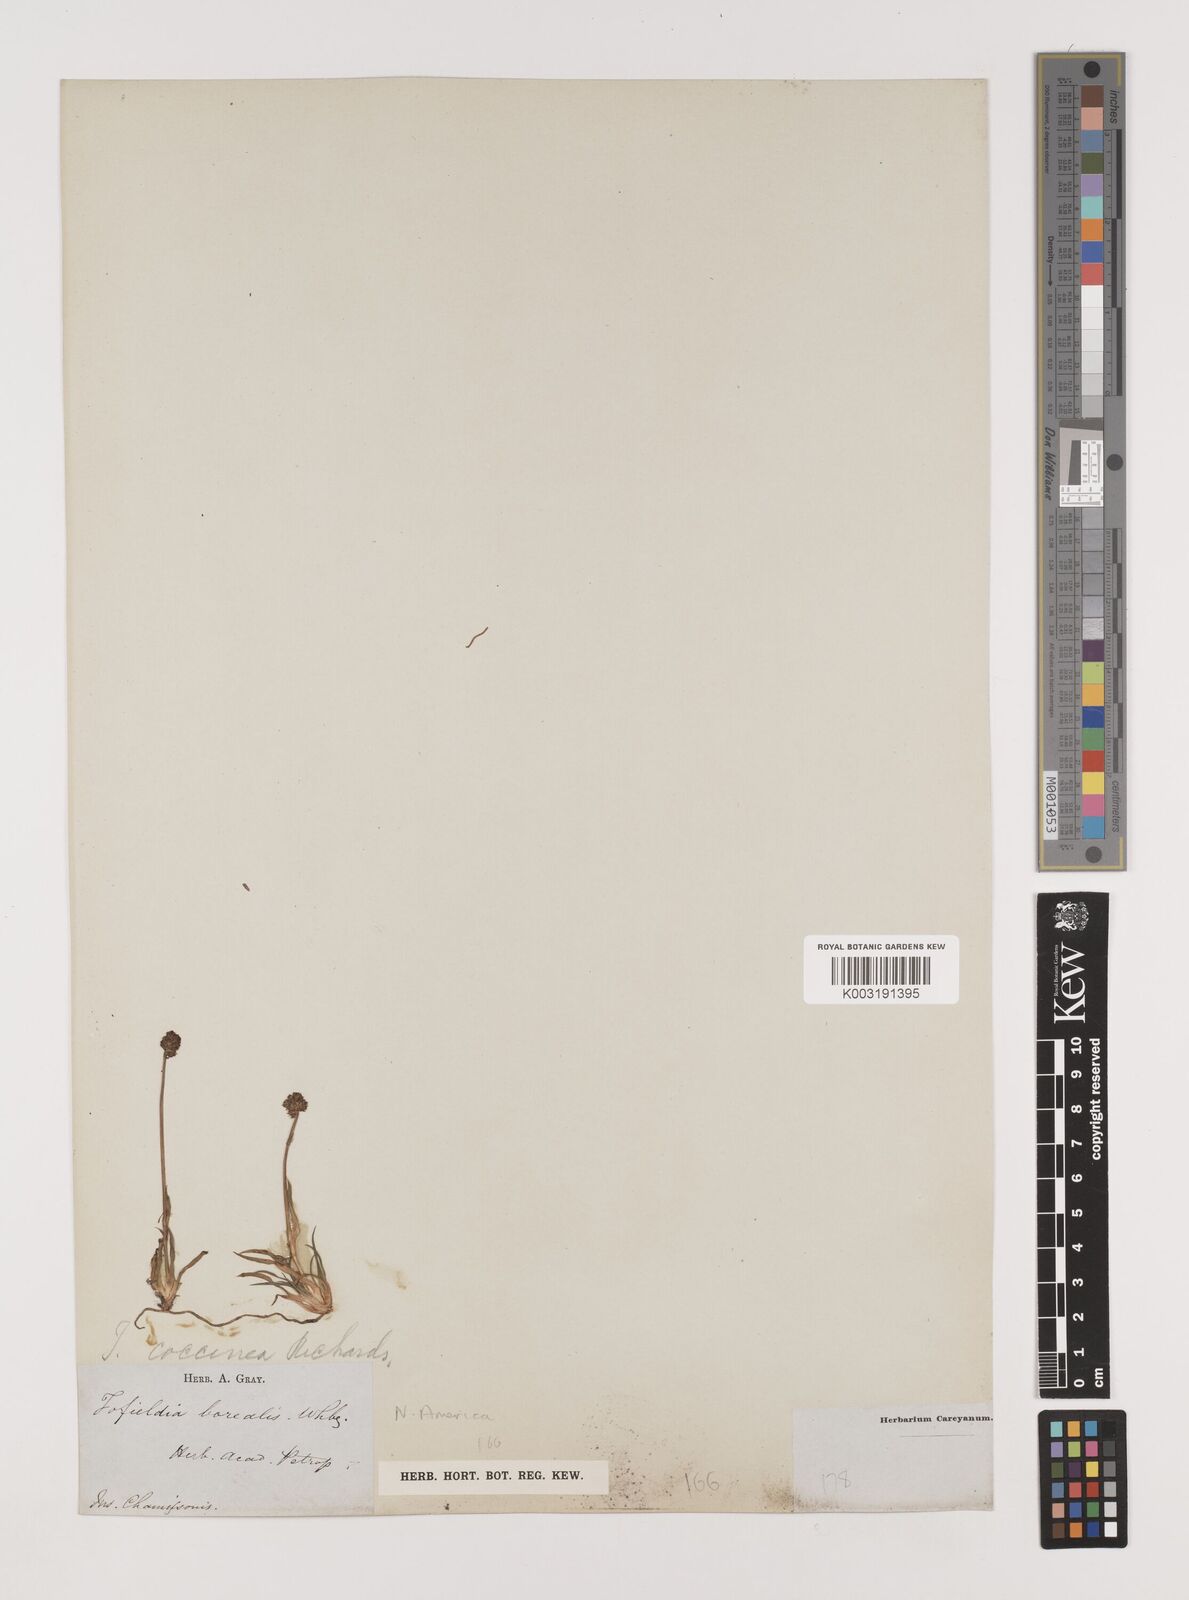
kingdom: Plantae
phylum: Tracheophyta
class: Liliopsida
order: Alismatales
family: Tofieldiaceae
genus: Tofieldia
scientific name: Tofieldia coccinea
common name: Northern false asphodel
